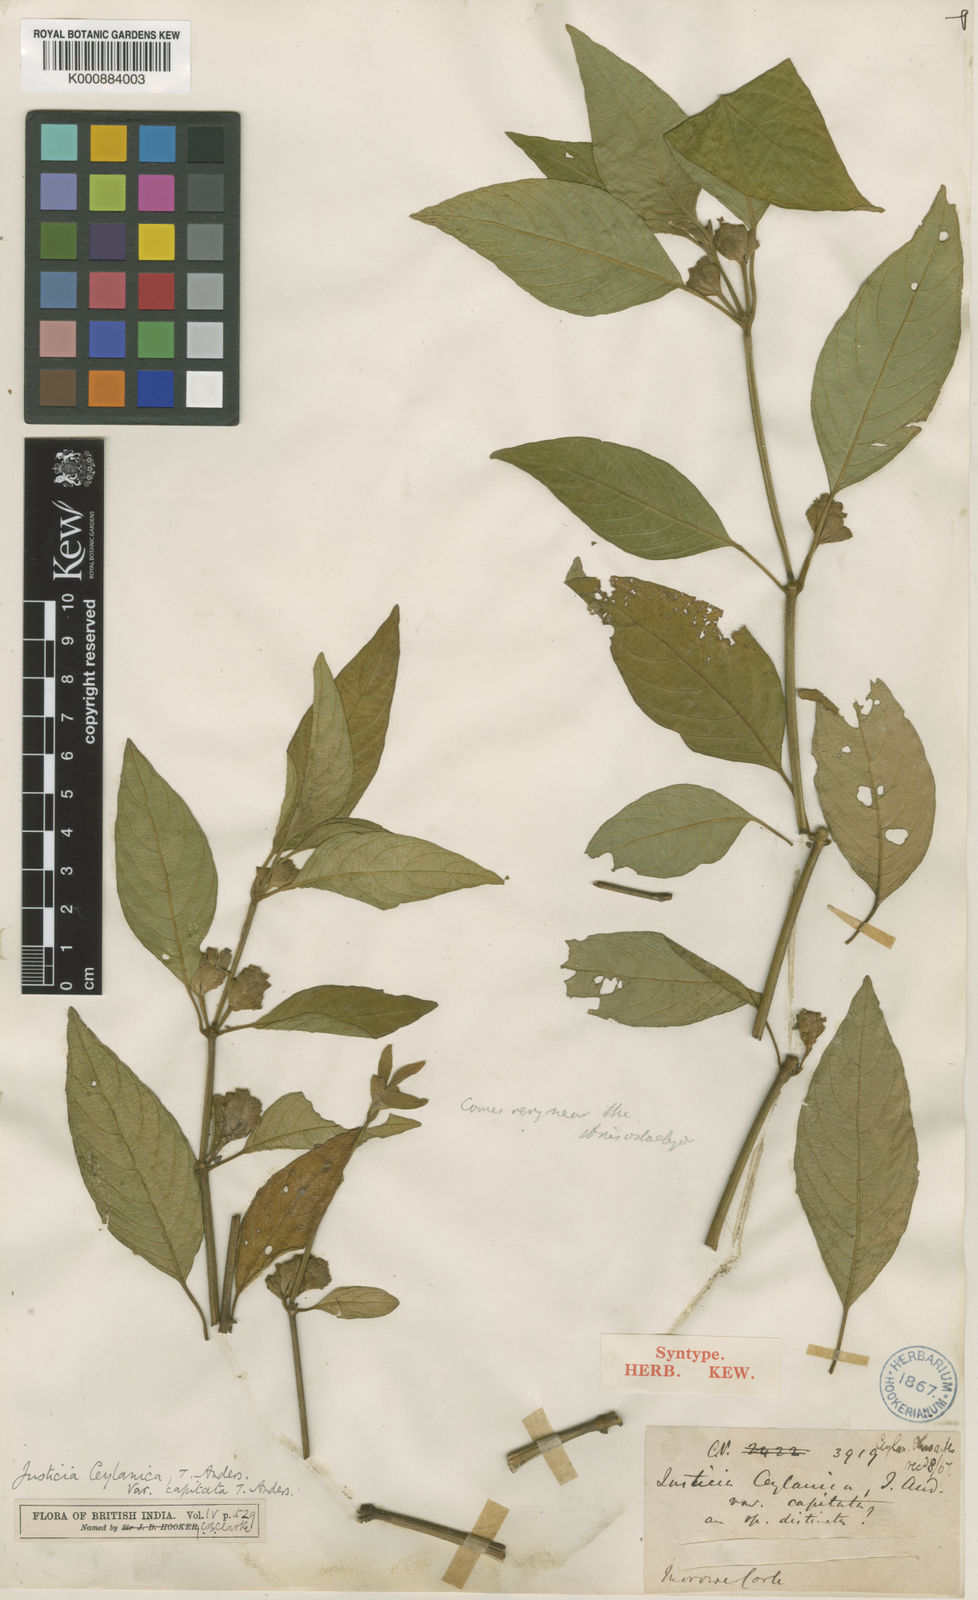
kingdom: Plantae
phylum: Tracheophyta
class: Magnoliopsida
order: Lamiales
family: Acanthaceae
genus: Justicia
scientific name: Justicia ceylanica
